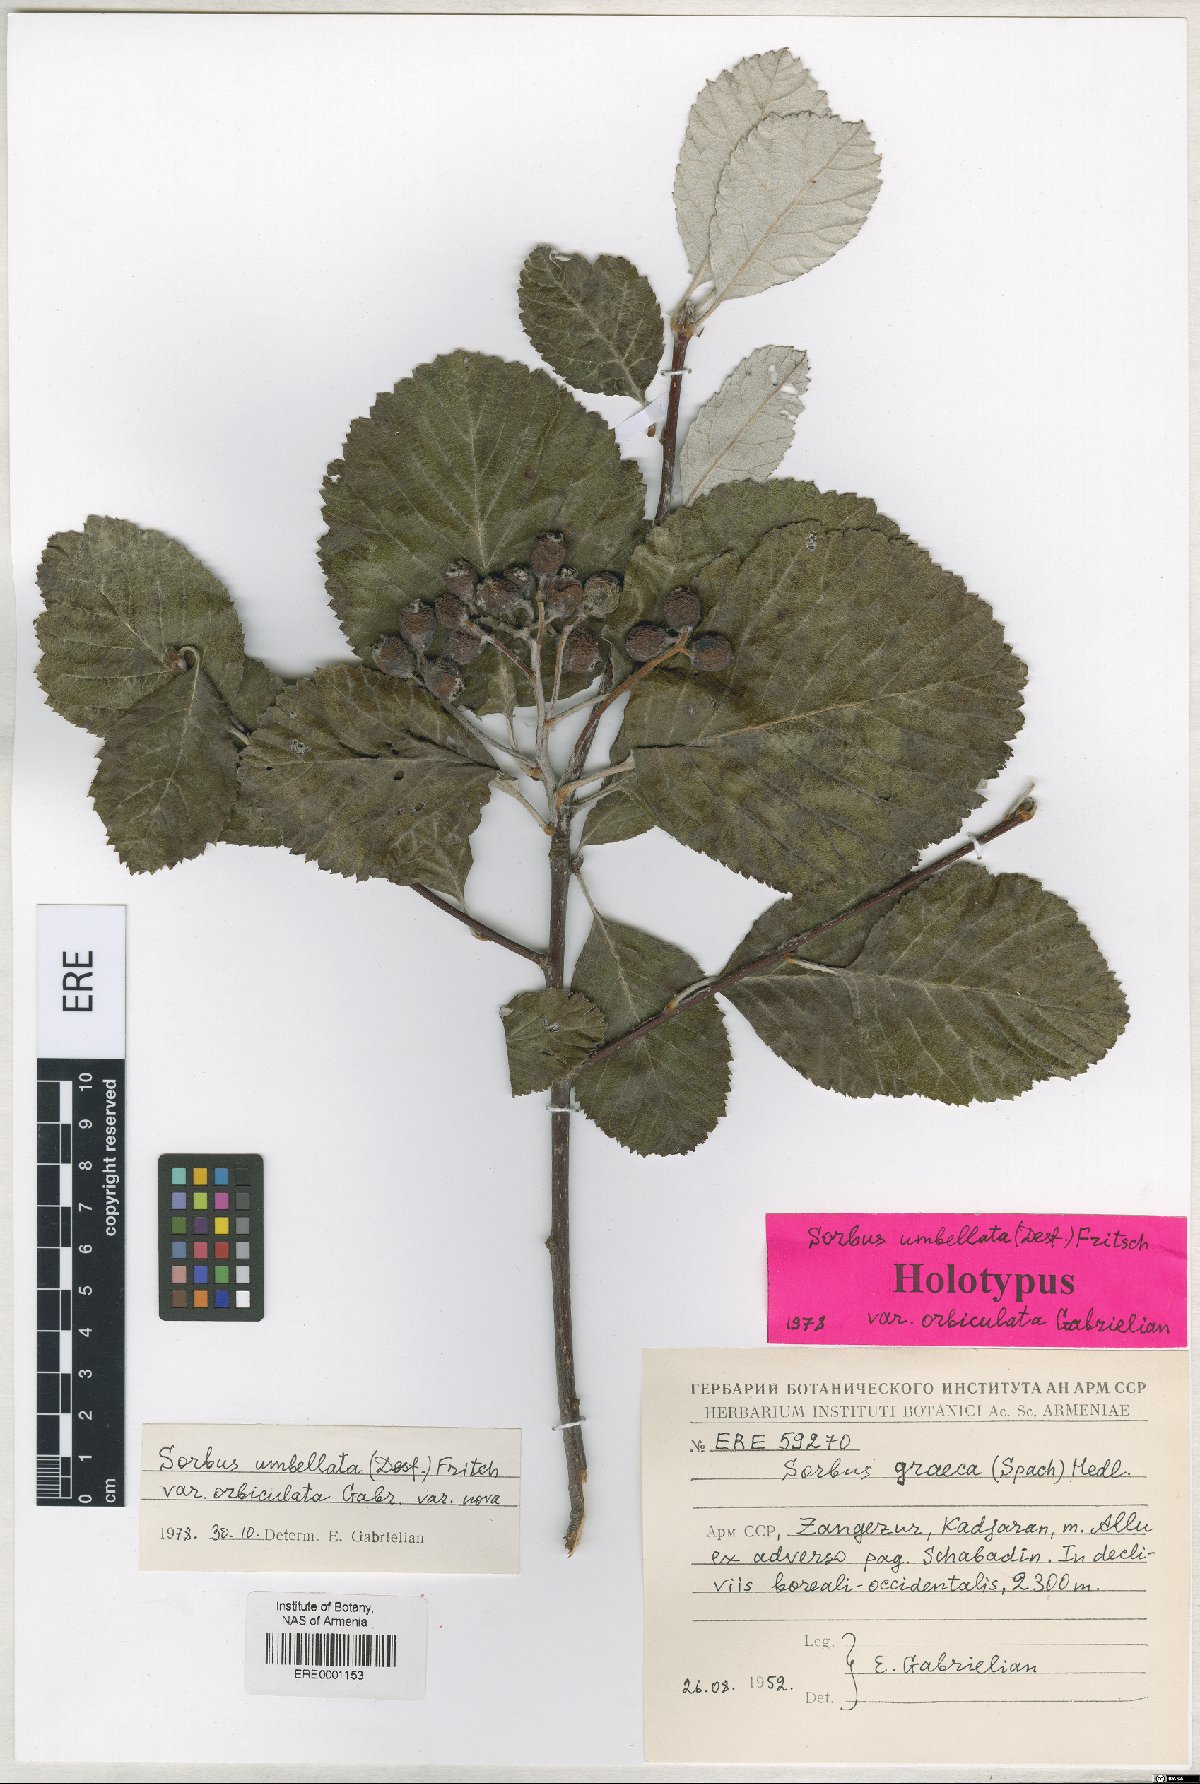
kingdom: Plantae
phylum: Tracheophyta
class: Magnoliopsida
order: Rosales
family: Rosaceae
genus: Aria
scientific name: Aria umbellata
